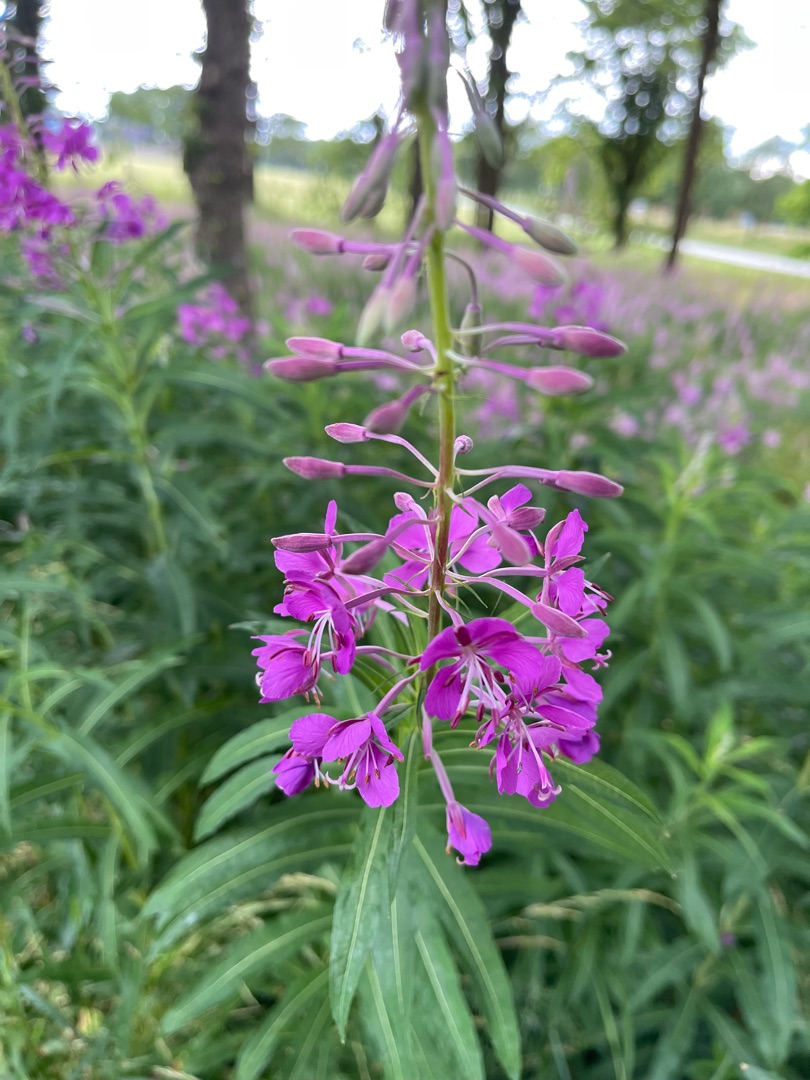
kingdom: Plantae
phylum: Tracheophyta
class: Magnoliopsida
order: Myrtales
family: Onagraceae
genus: Chamaenerion
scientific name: Chamaenerion angustifolium
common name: Gederams
